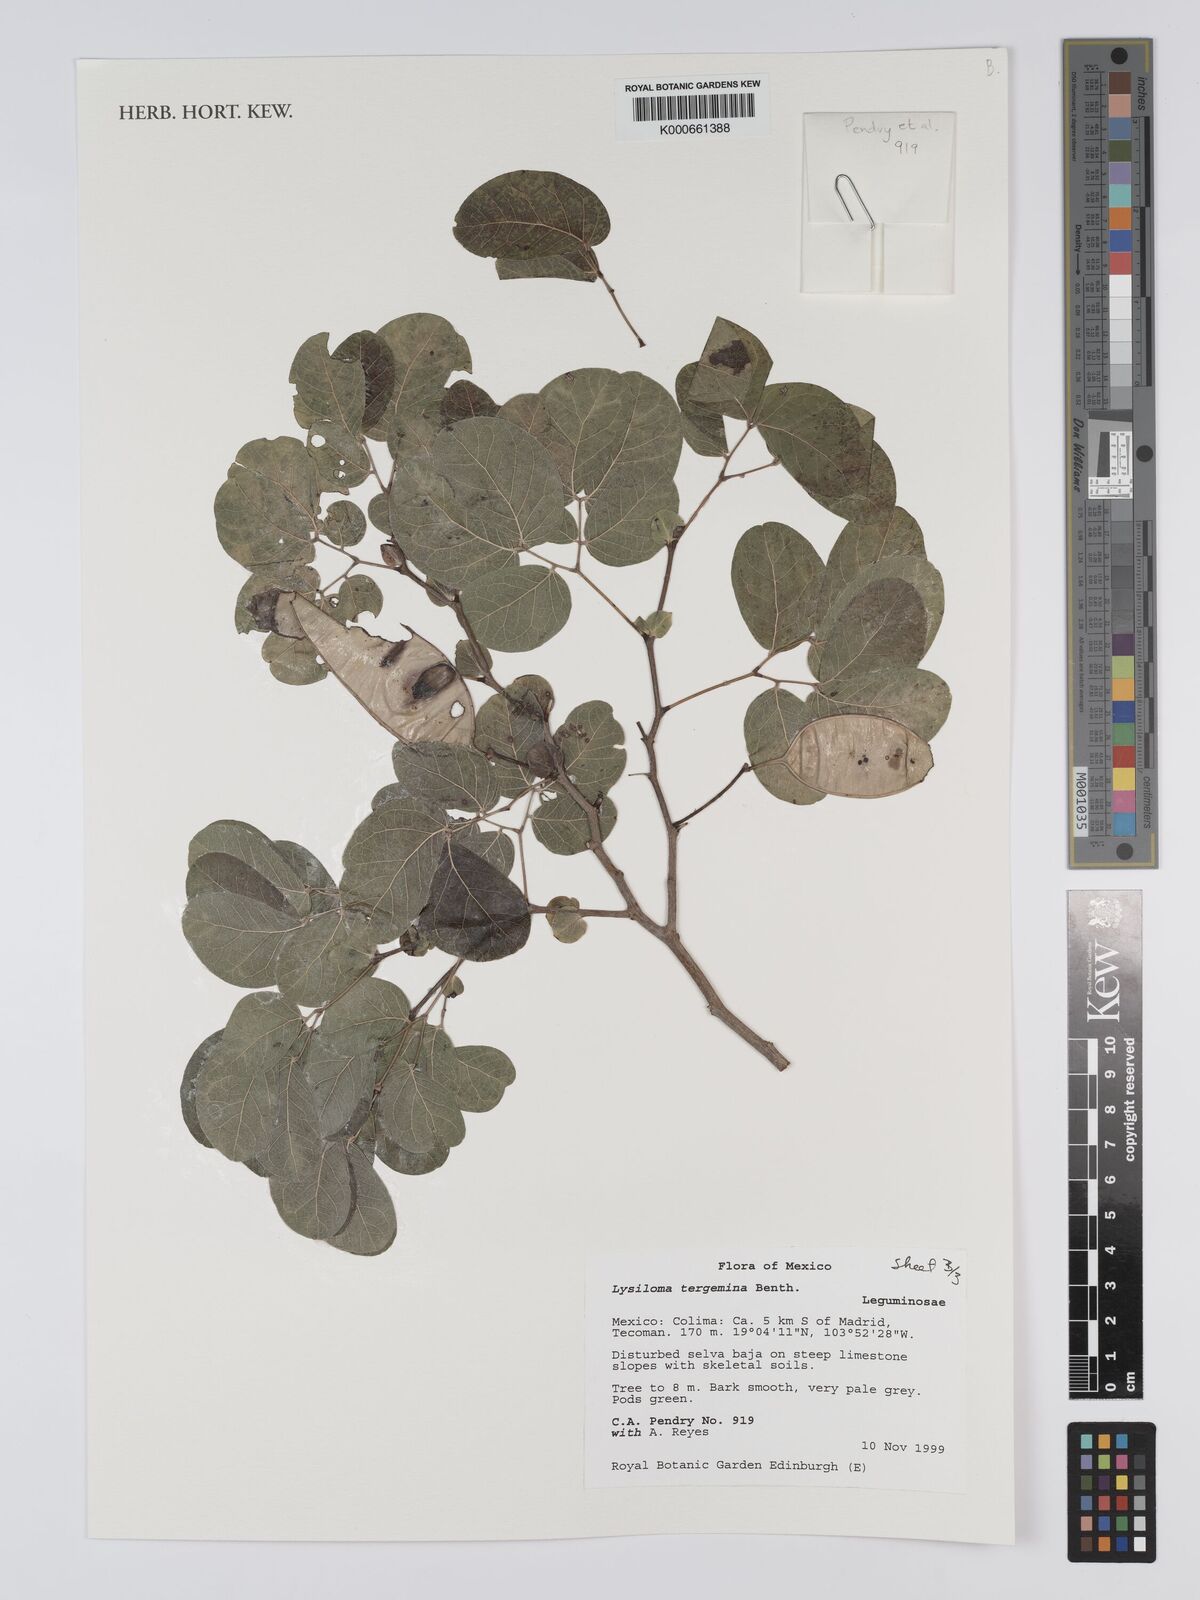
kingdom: Plantae
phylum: Tracheophyta
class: Magnoliopsida
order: Fabales
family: Fabaceae
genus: Lysiloma
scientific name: Lysiloma tergeminum
